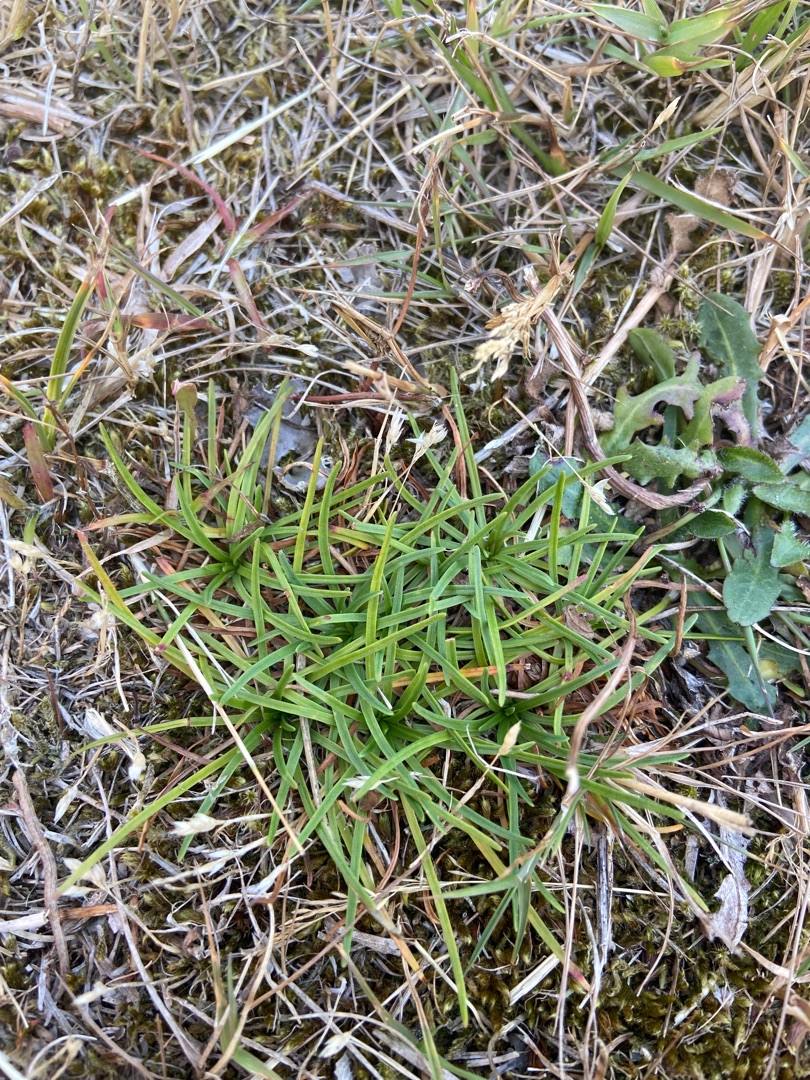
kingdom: Plantae
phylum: Tracheophyta
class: Magnoliopsida
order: Caryophyllales
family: Plumbaginaceae
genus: Armeria
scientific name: Armeria maritima
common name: Engelskgræs
